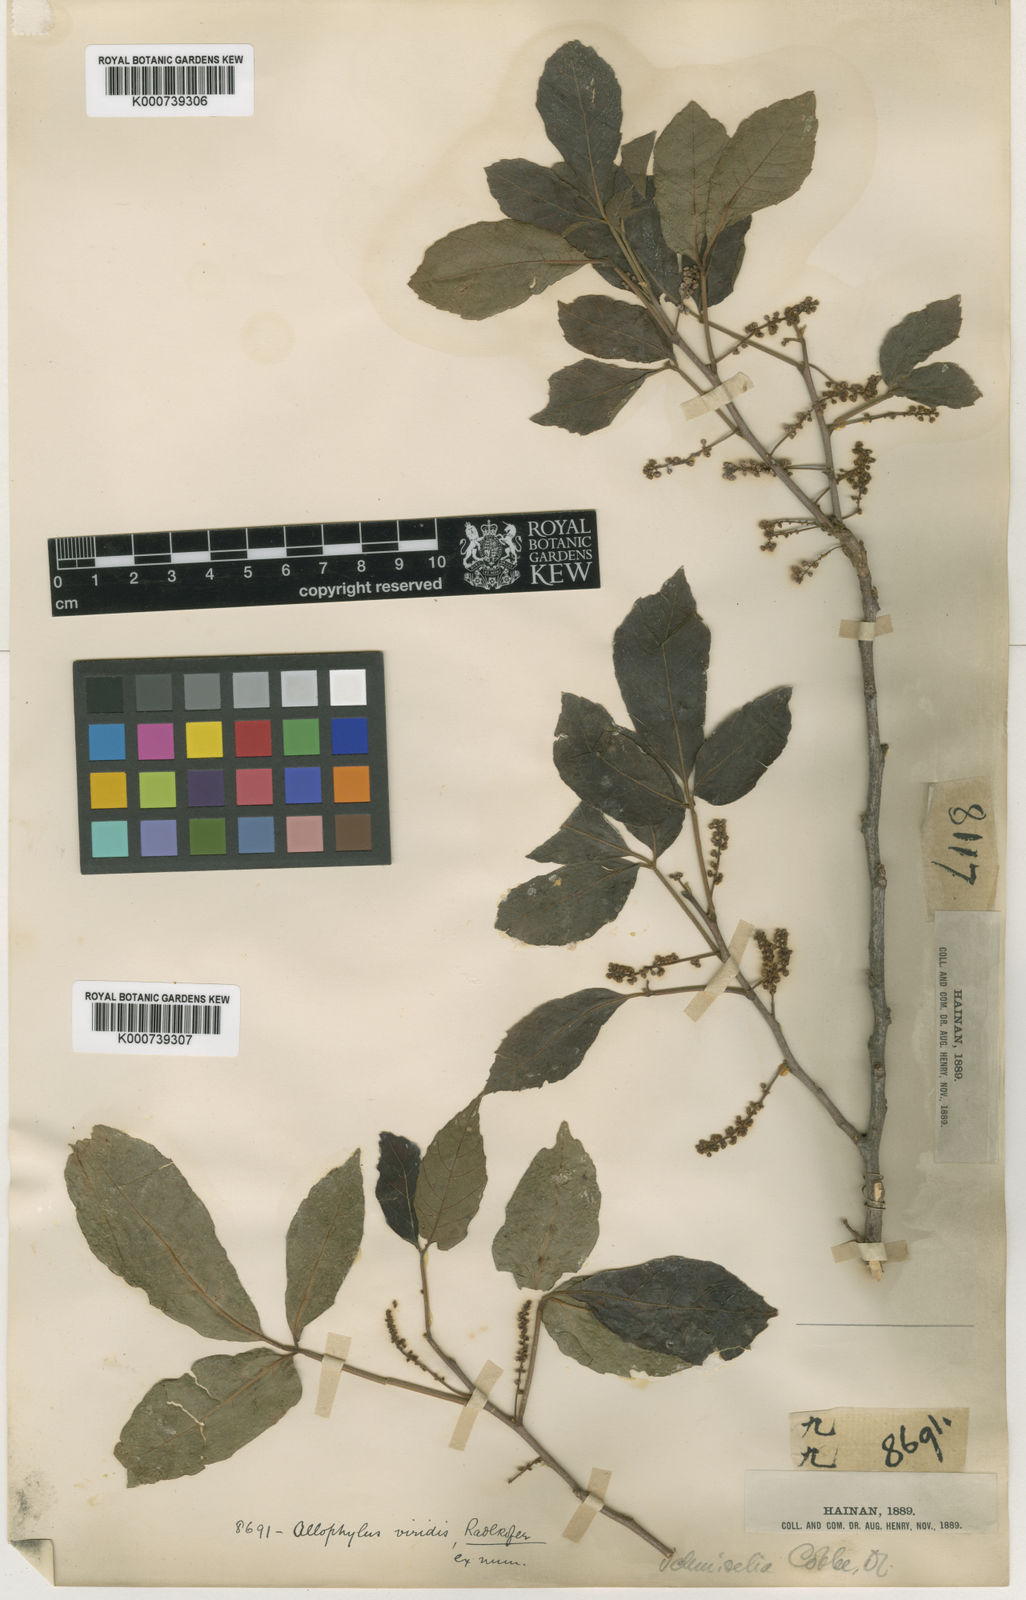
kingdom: Plantae
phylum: Tracheophyta
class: Magnoliopsida
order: Sapindales
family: Sapindaceae
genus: Allophylus
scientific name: Allophylus viridis
